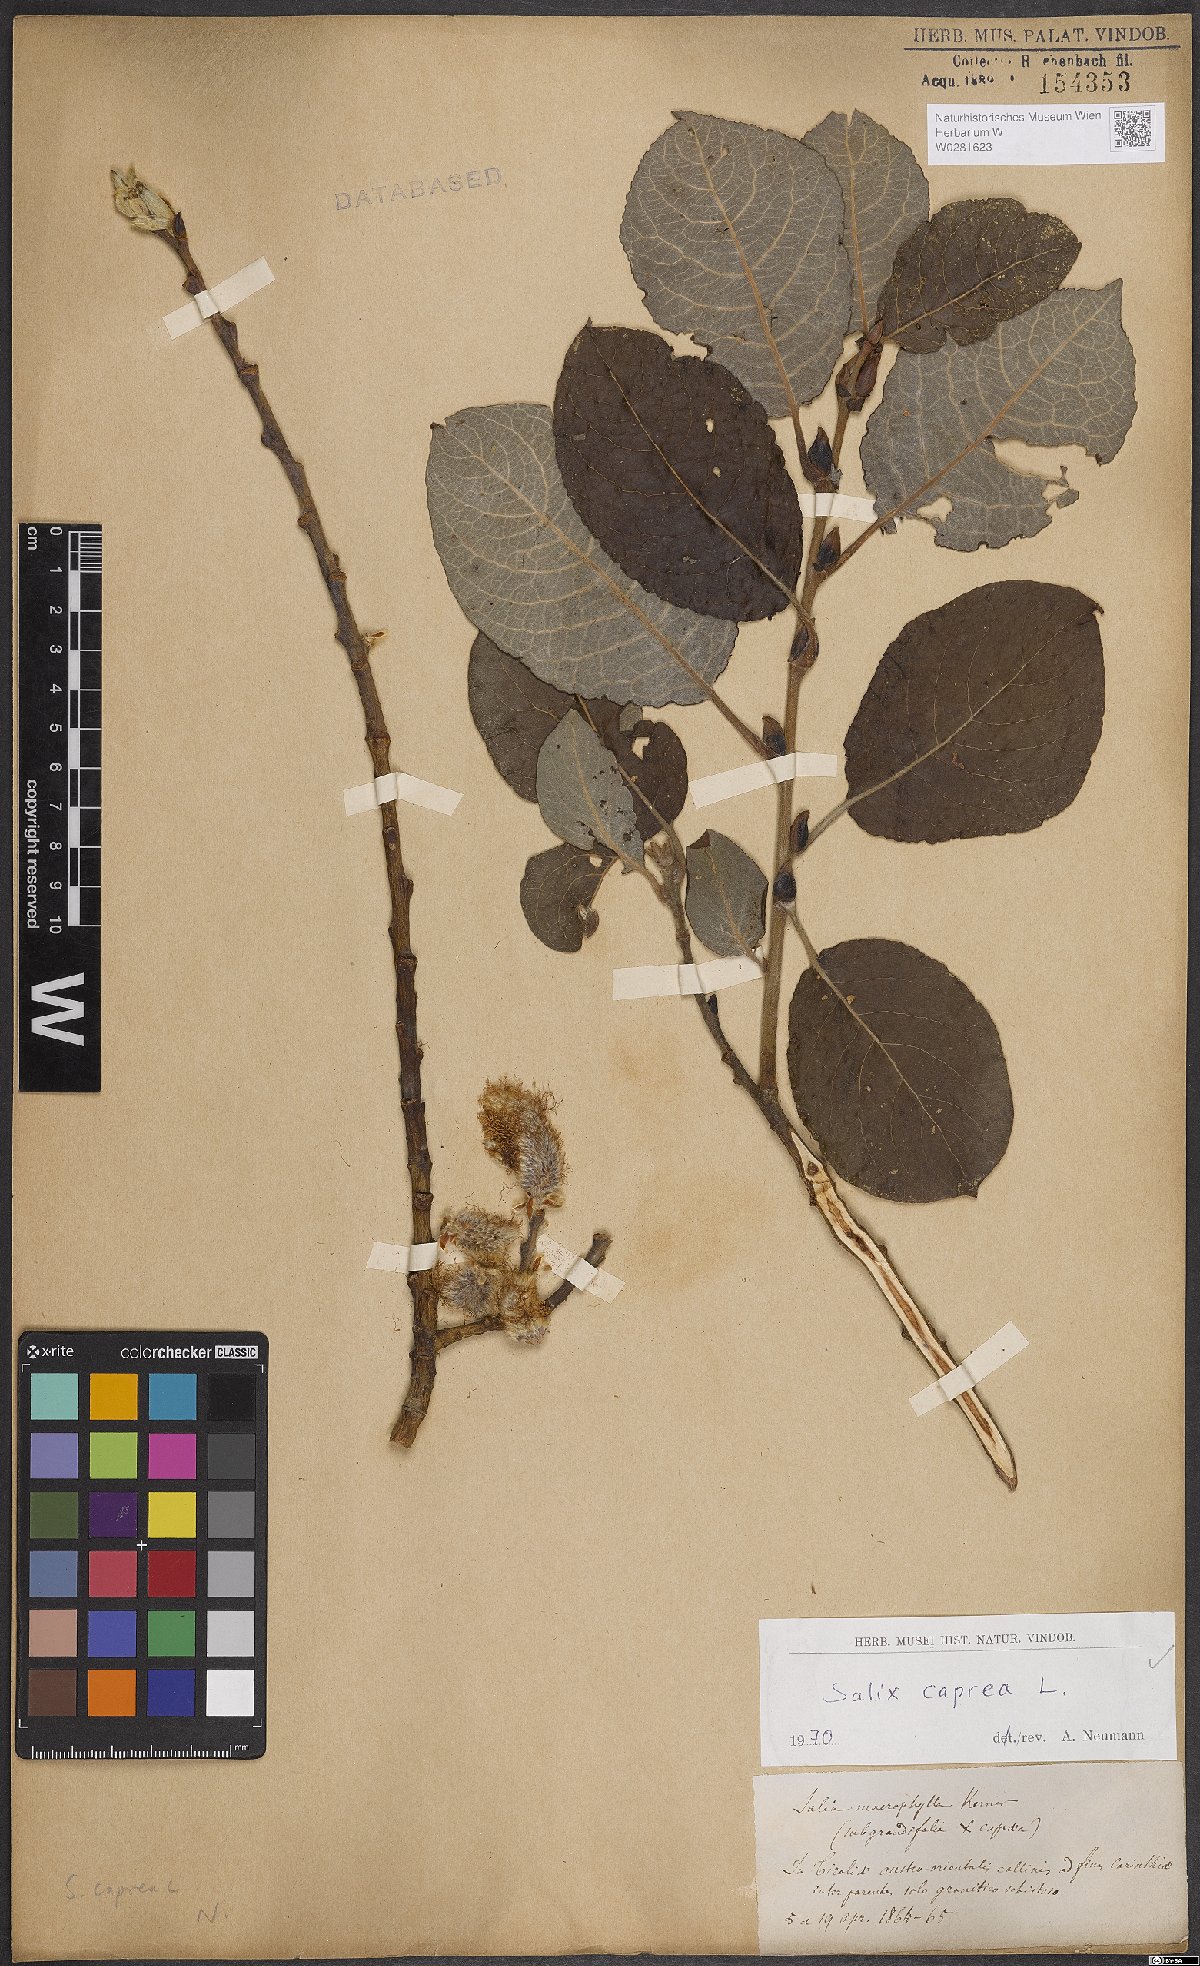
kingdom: Plantae
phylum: Tracheophyta
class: Magnoliopsida
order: Malpighiales
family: Salicaceae
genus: Salix
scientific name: Salix caprea
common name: Goat willow
